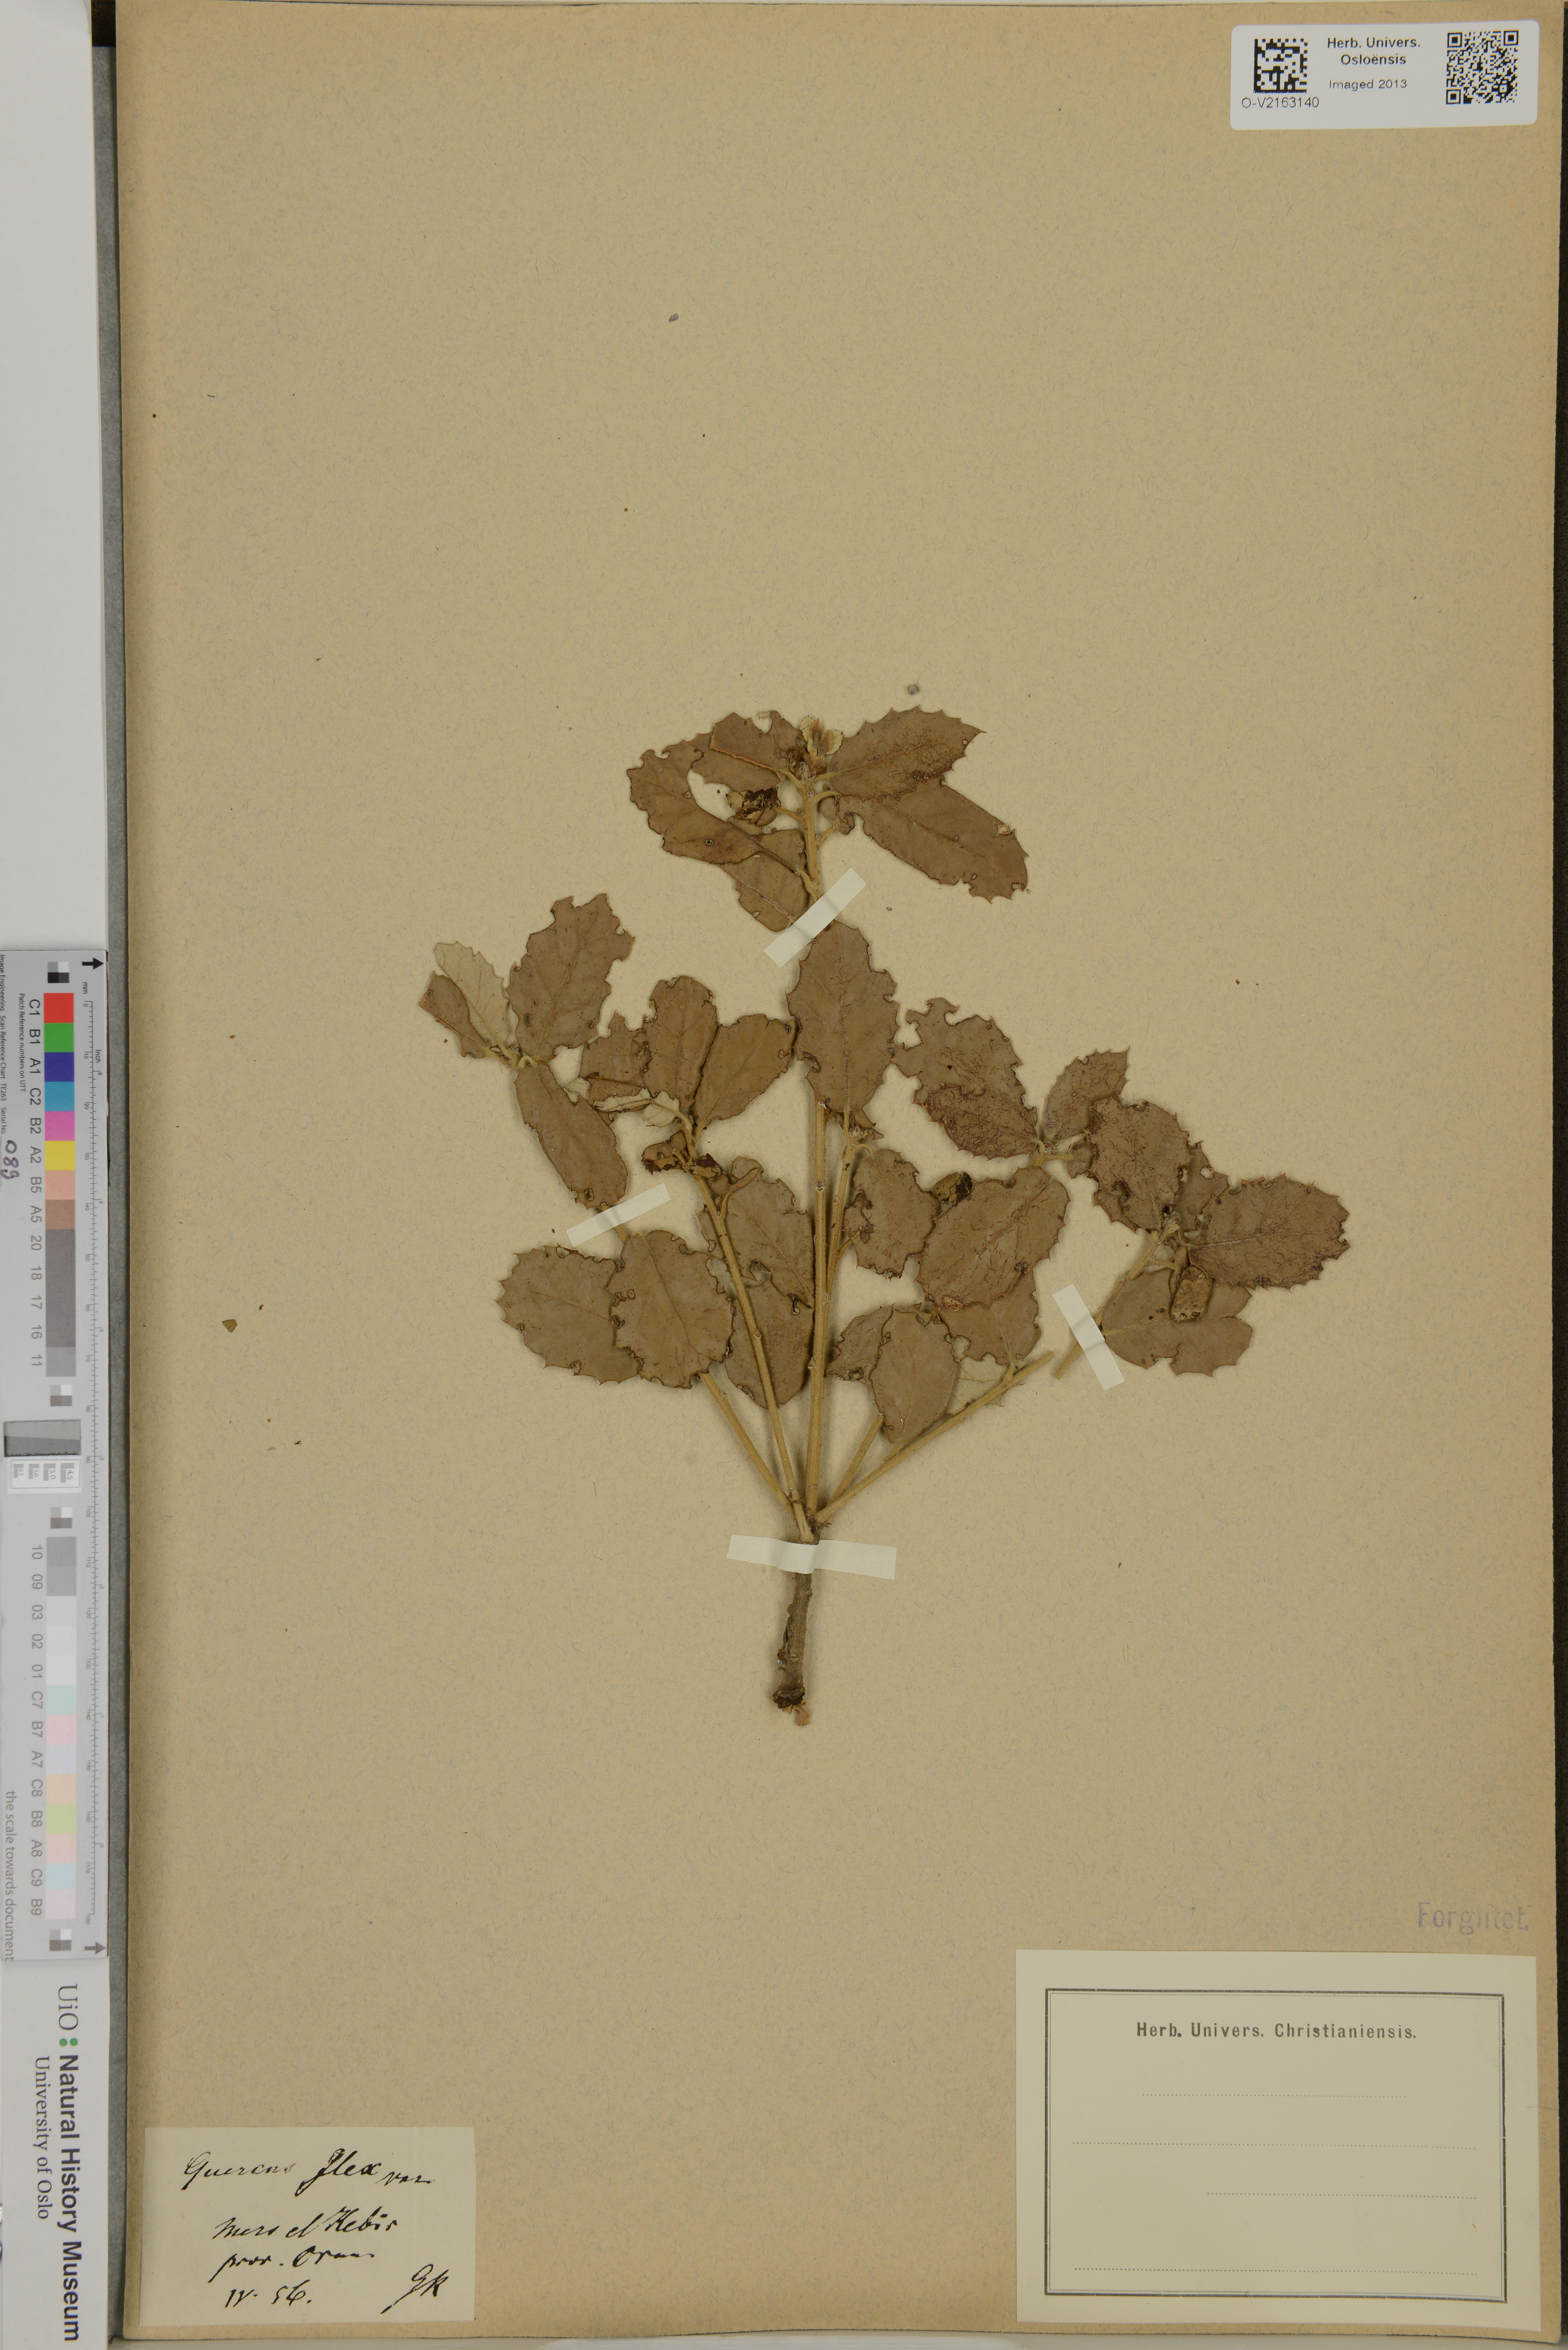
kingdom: Plantae
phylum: Tracheophyta
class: Magnoliopsida
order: Fagales
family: Fagaceae
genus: Quercus
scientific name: Quercus ilex
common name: Evergreen oak
